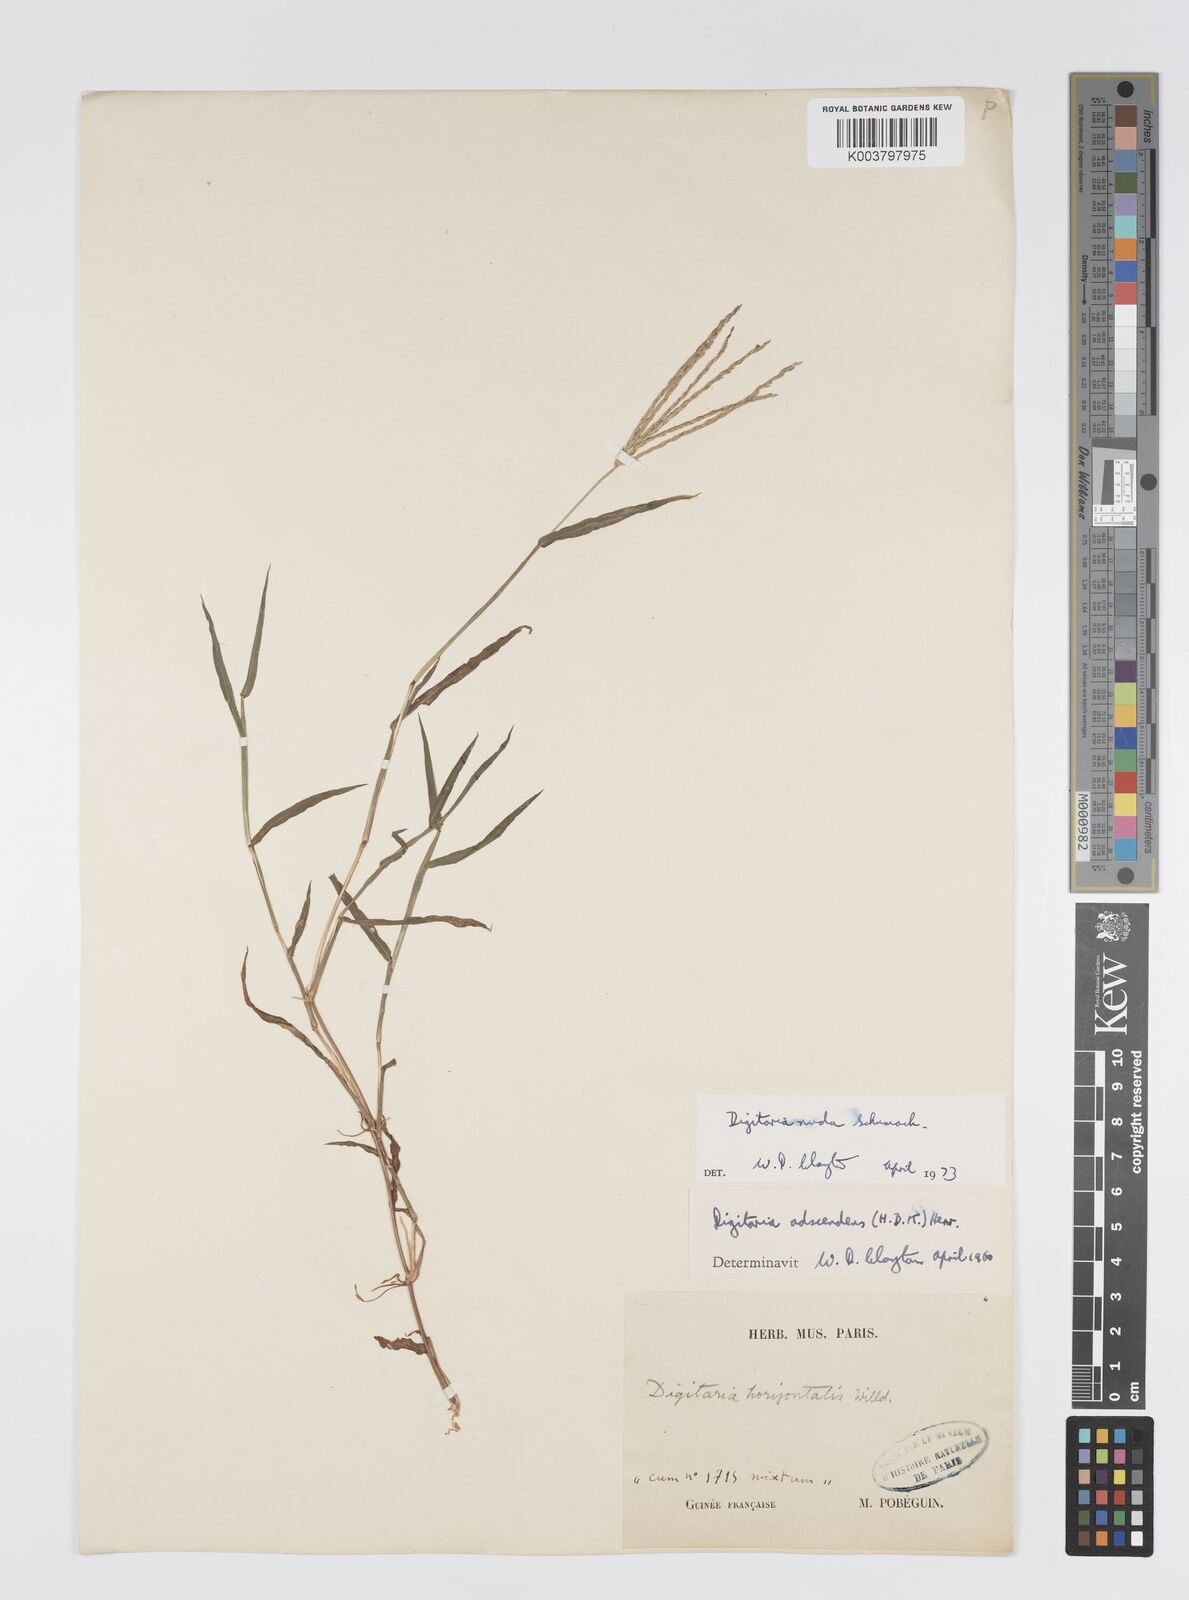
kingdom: Plantae
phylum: Tracheophyta
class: Liliopsida
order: Poales
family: Poaceae
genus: Digitaria
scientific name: Digitaria nuda
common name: Naked crabgrass
